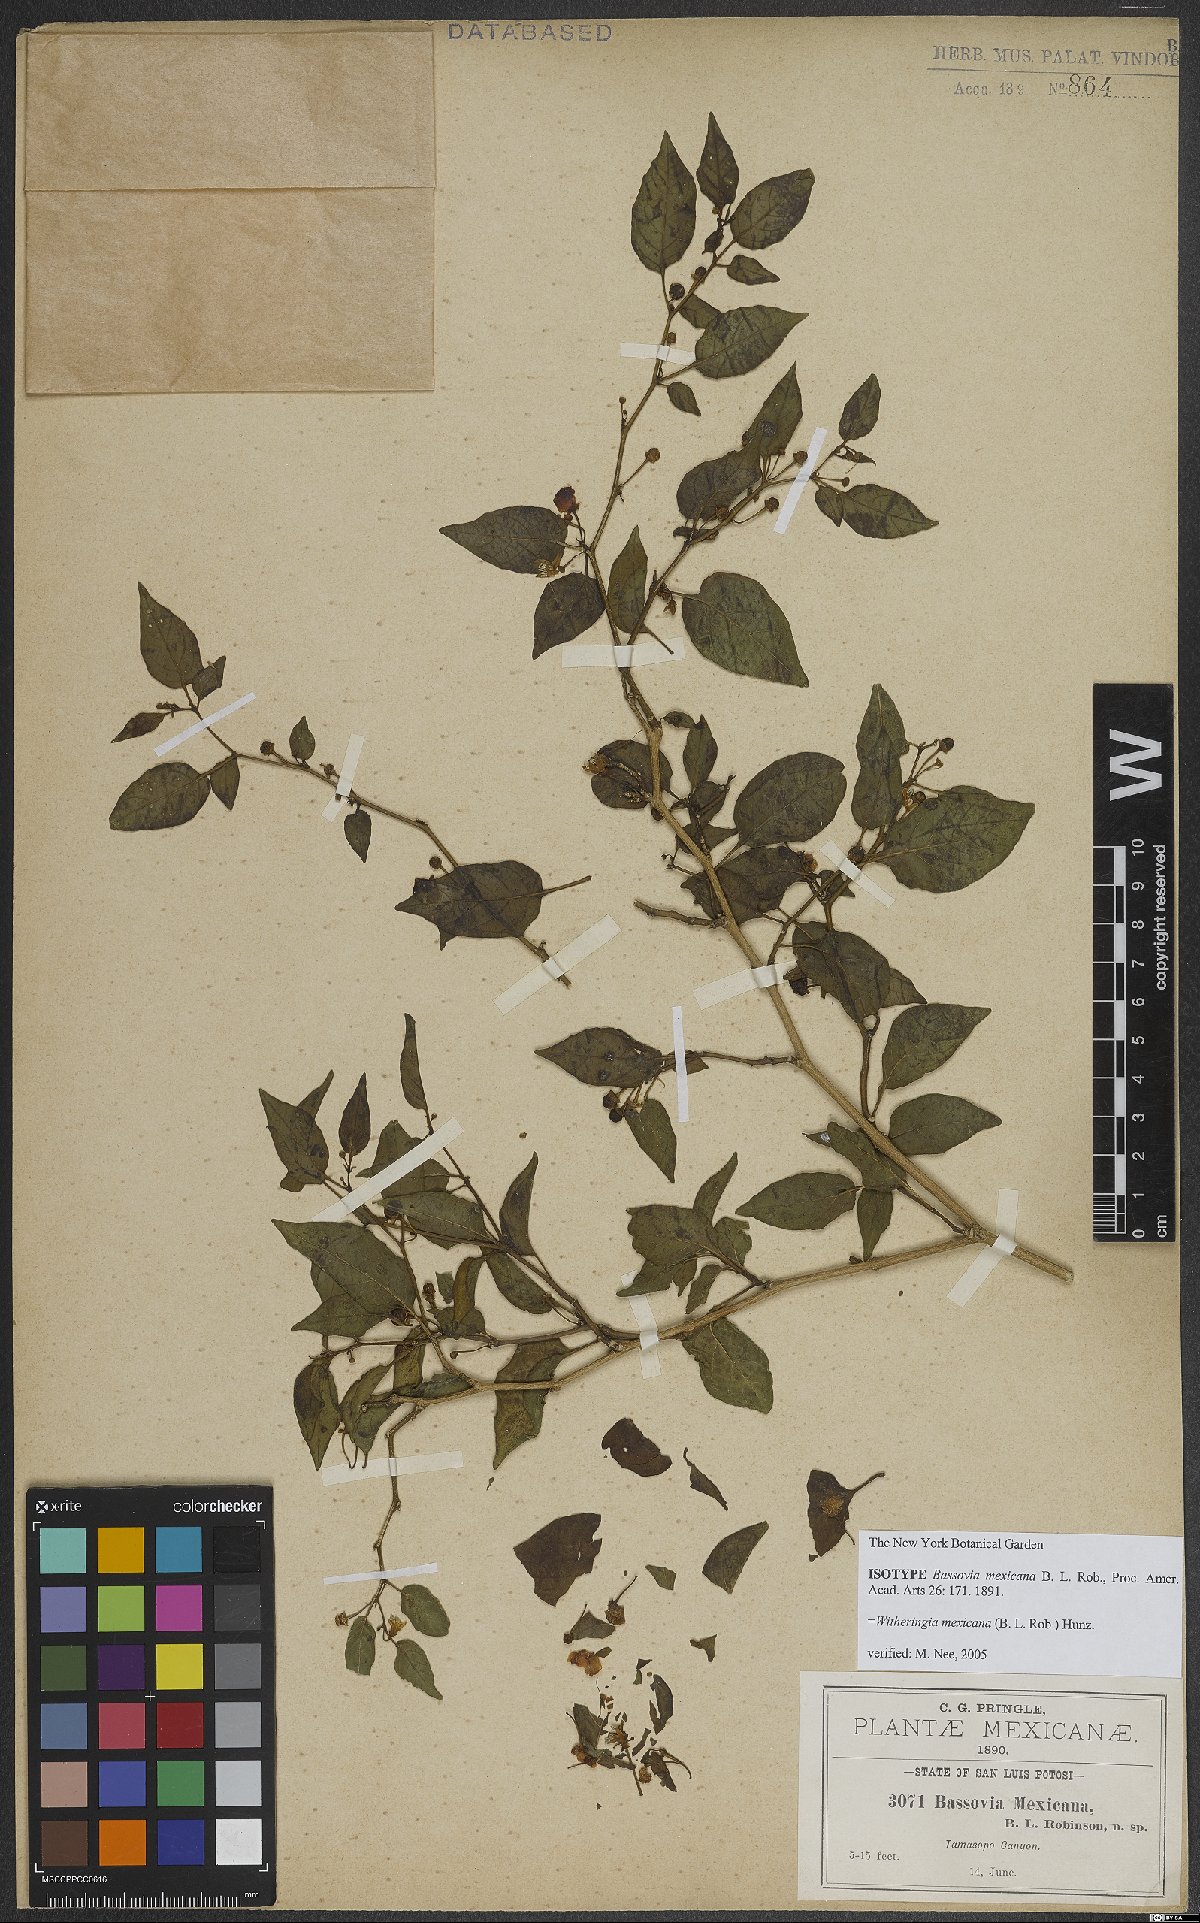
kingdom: Plantae
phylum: Tracheophyta
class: Magnoliopsida
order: Solanales
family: Solanaceae
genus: Witheringia
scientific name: Witheringia mexicana
